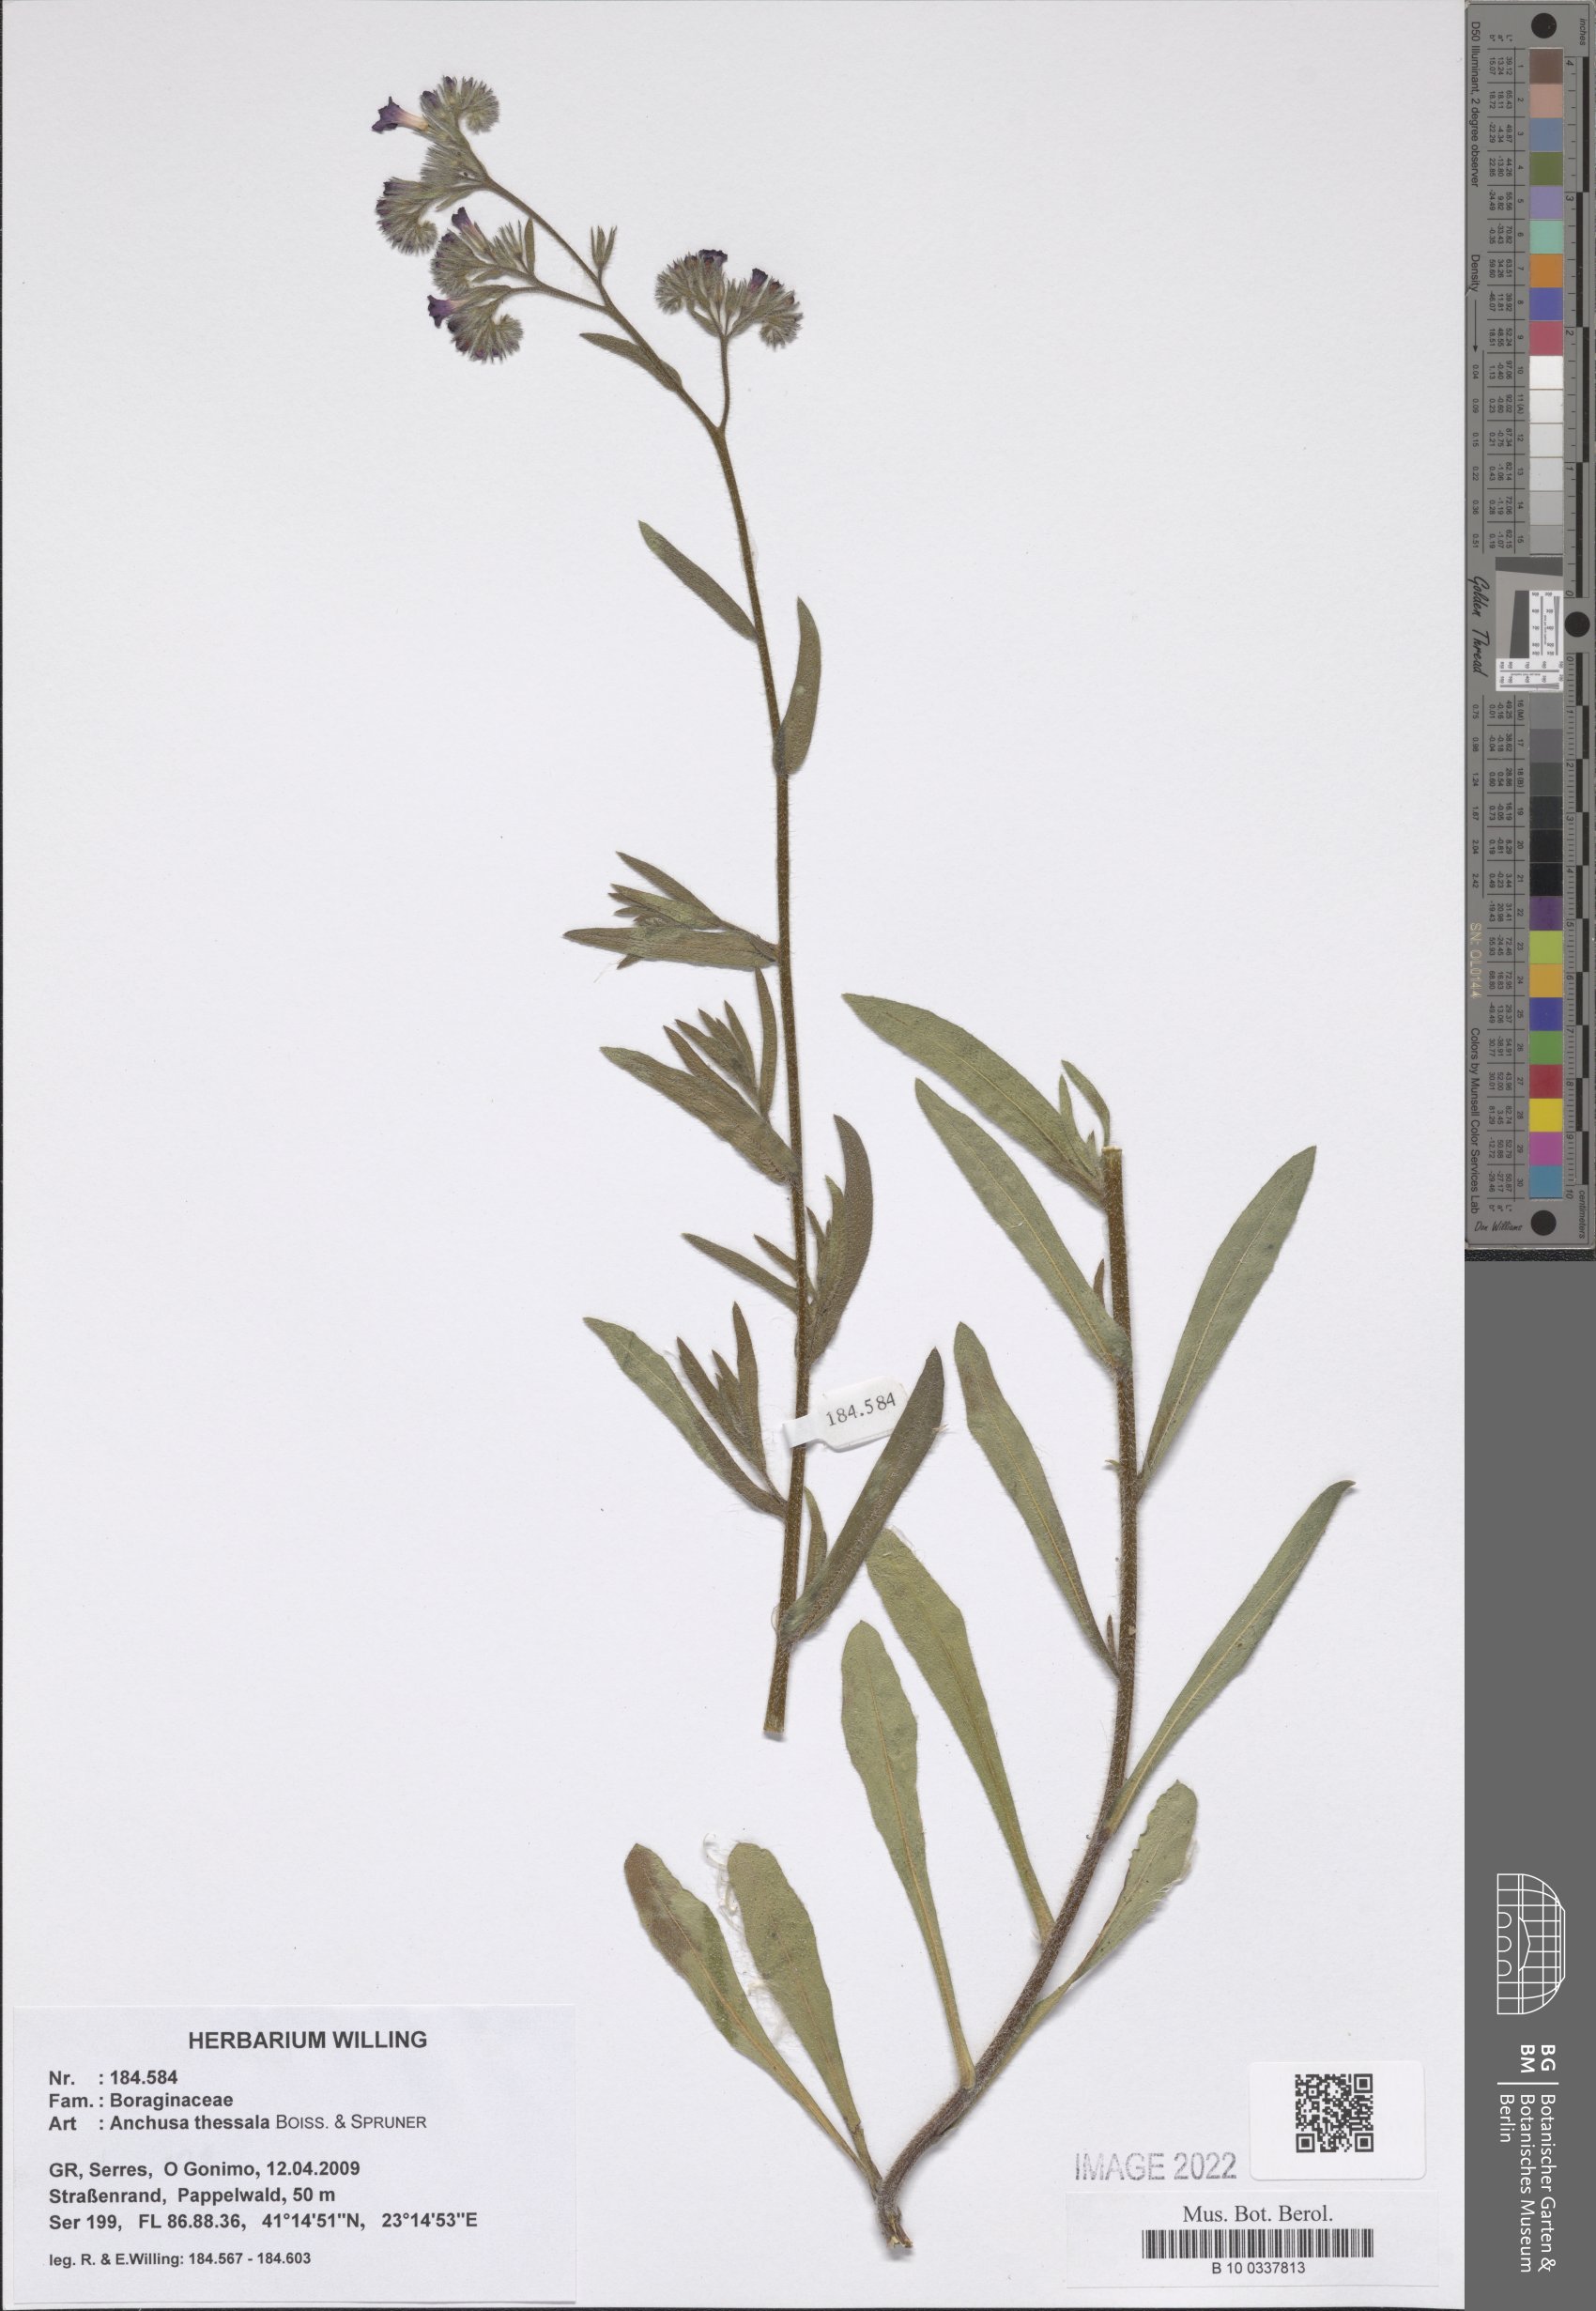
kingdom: Plantae
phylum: Tracheophyta
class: Magnoliopsida
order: Boraginales
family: Boraginaceae
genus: Anchusa
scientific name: Anchusa thessala
